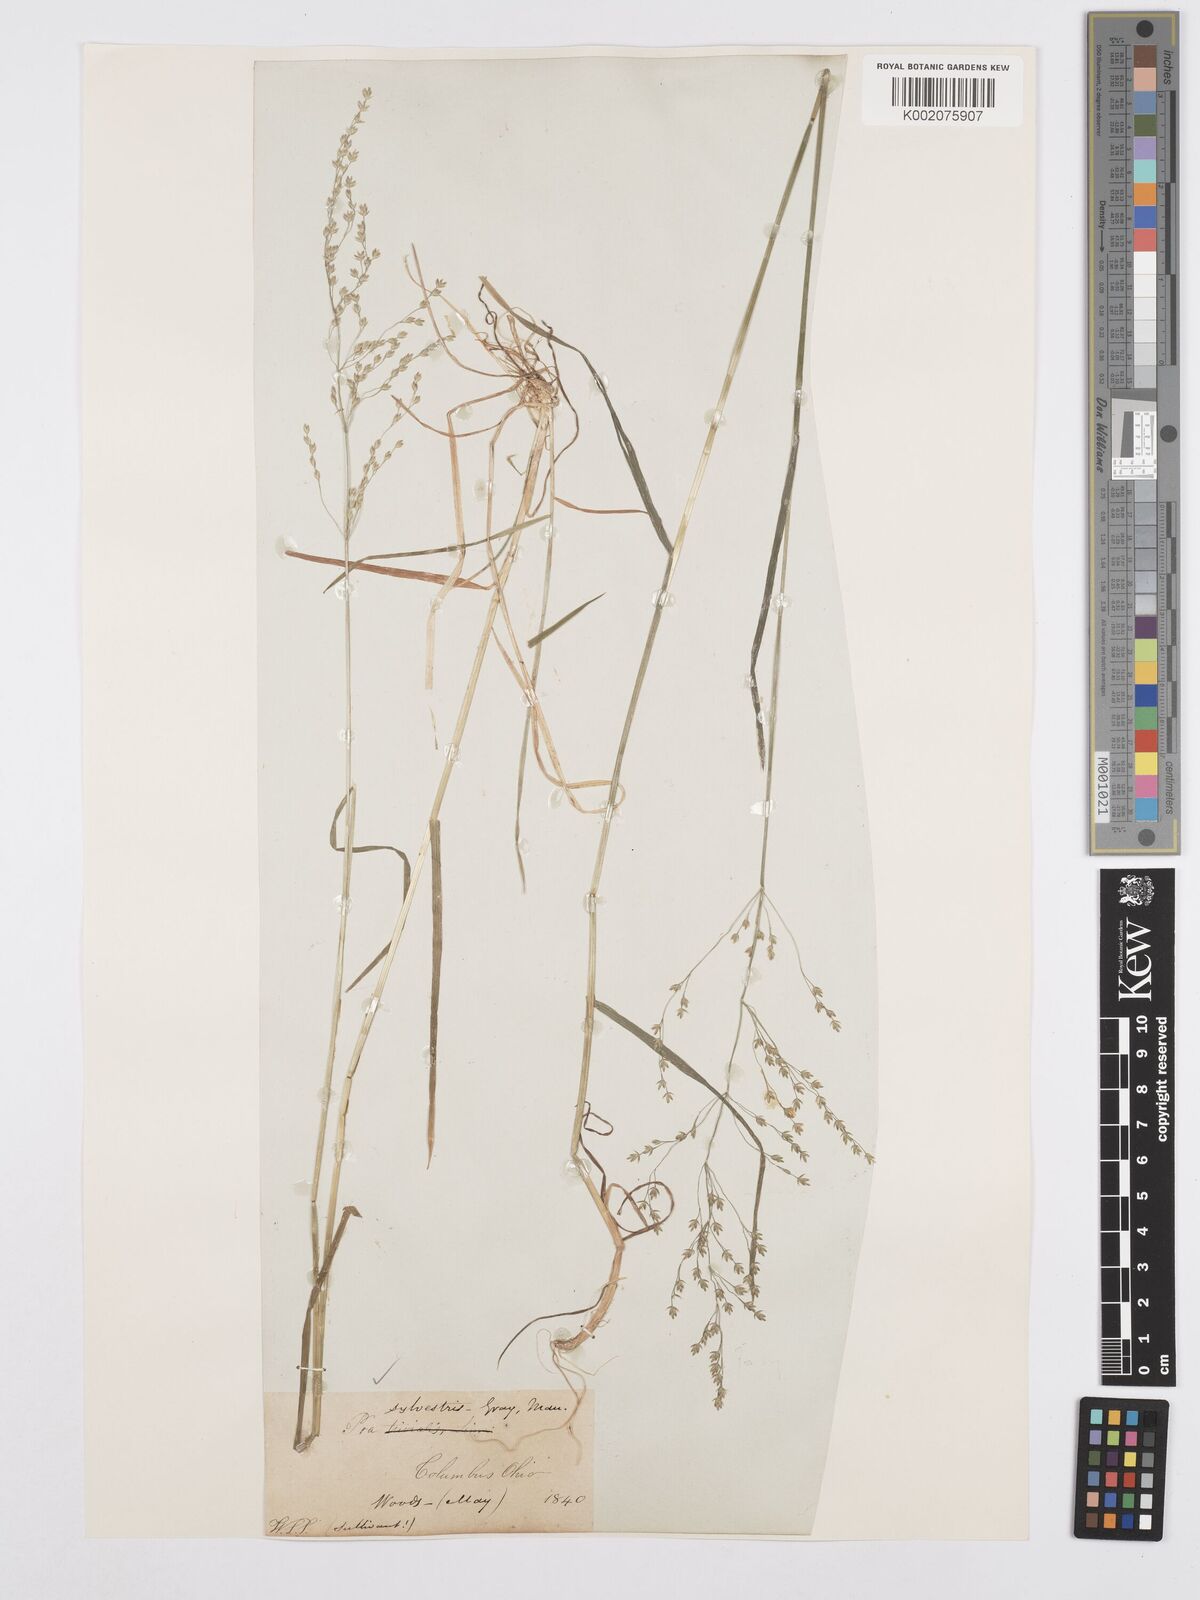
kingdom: Plantae
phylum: Tracheophyta
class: Liliopsida
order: Poales
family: Poaceae
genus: Poa
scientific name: Poa sylvestris
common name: North american woodland bluegrass
